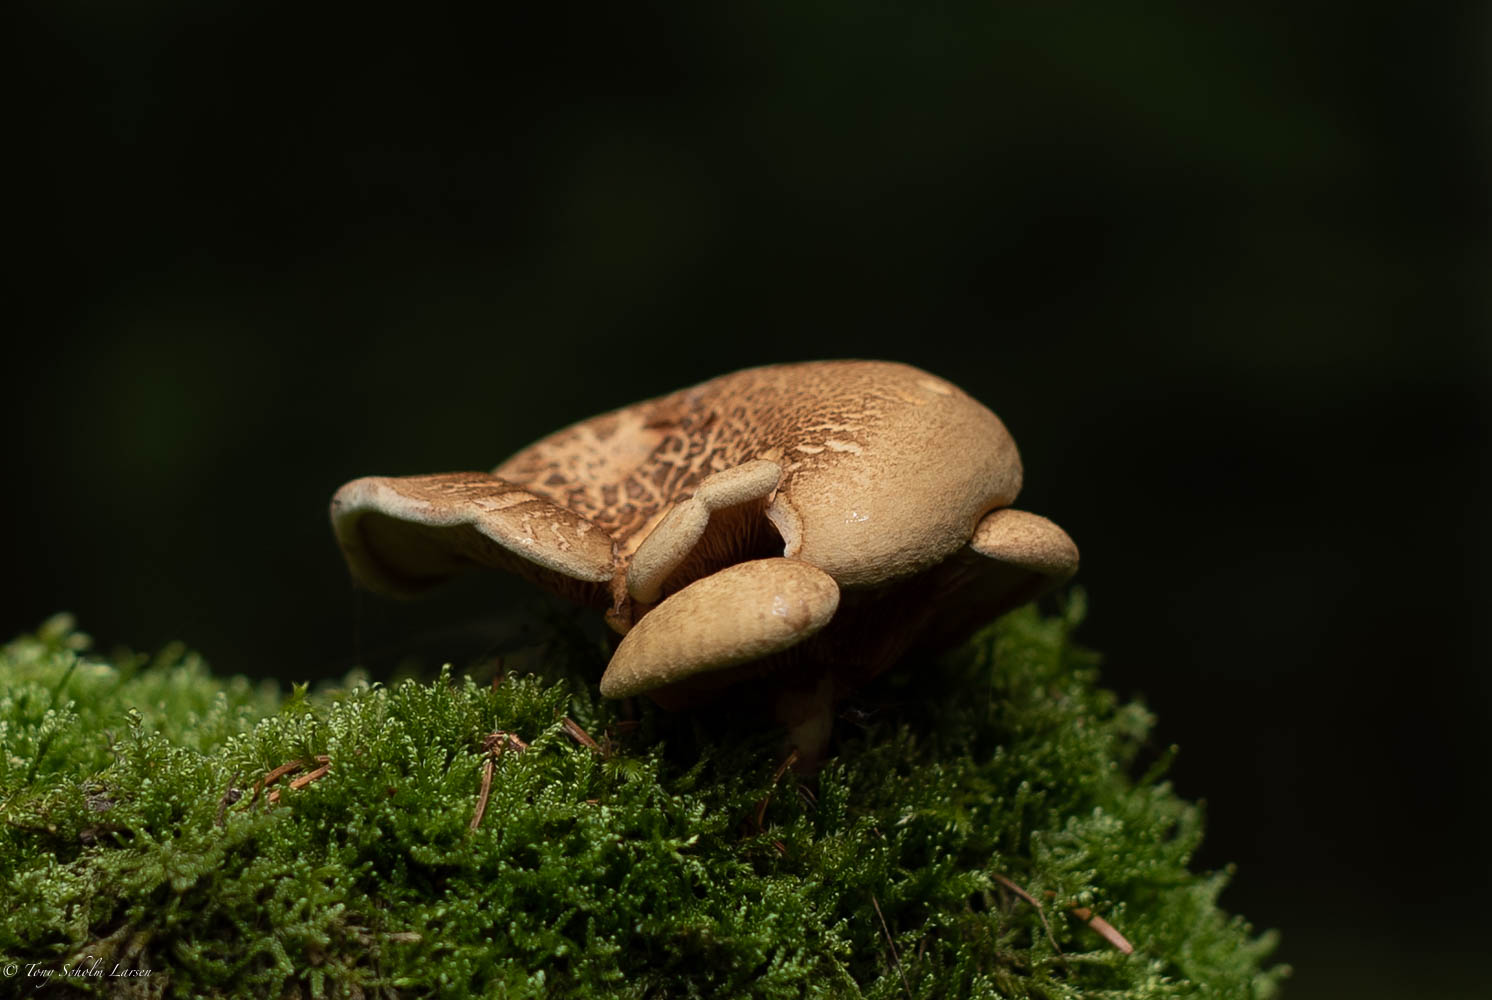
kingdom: Fungi
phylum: Basidiomycota
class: Agaricomycetes
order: Boletales
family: Tapinellaceae
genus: Tapinella
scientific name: Tapinella atrotomentosa
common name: sortfiltet viftesvamp
